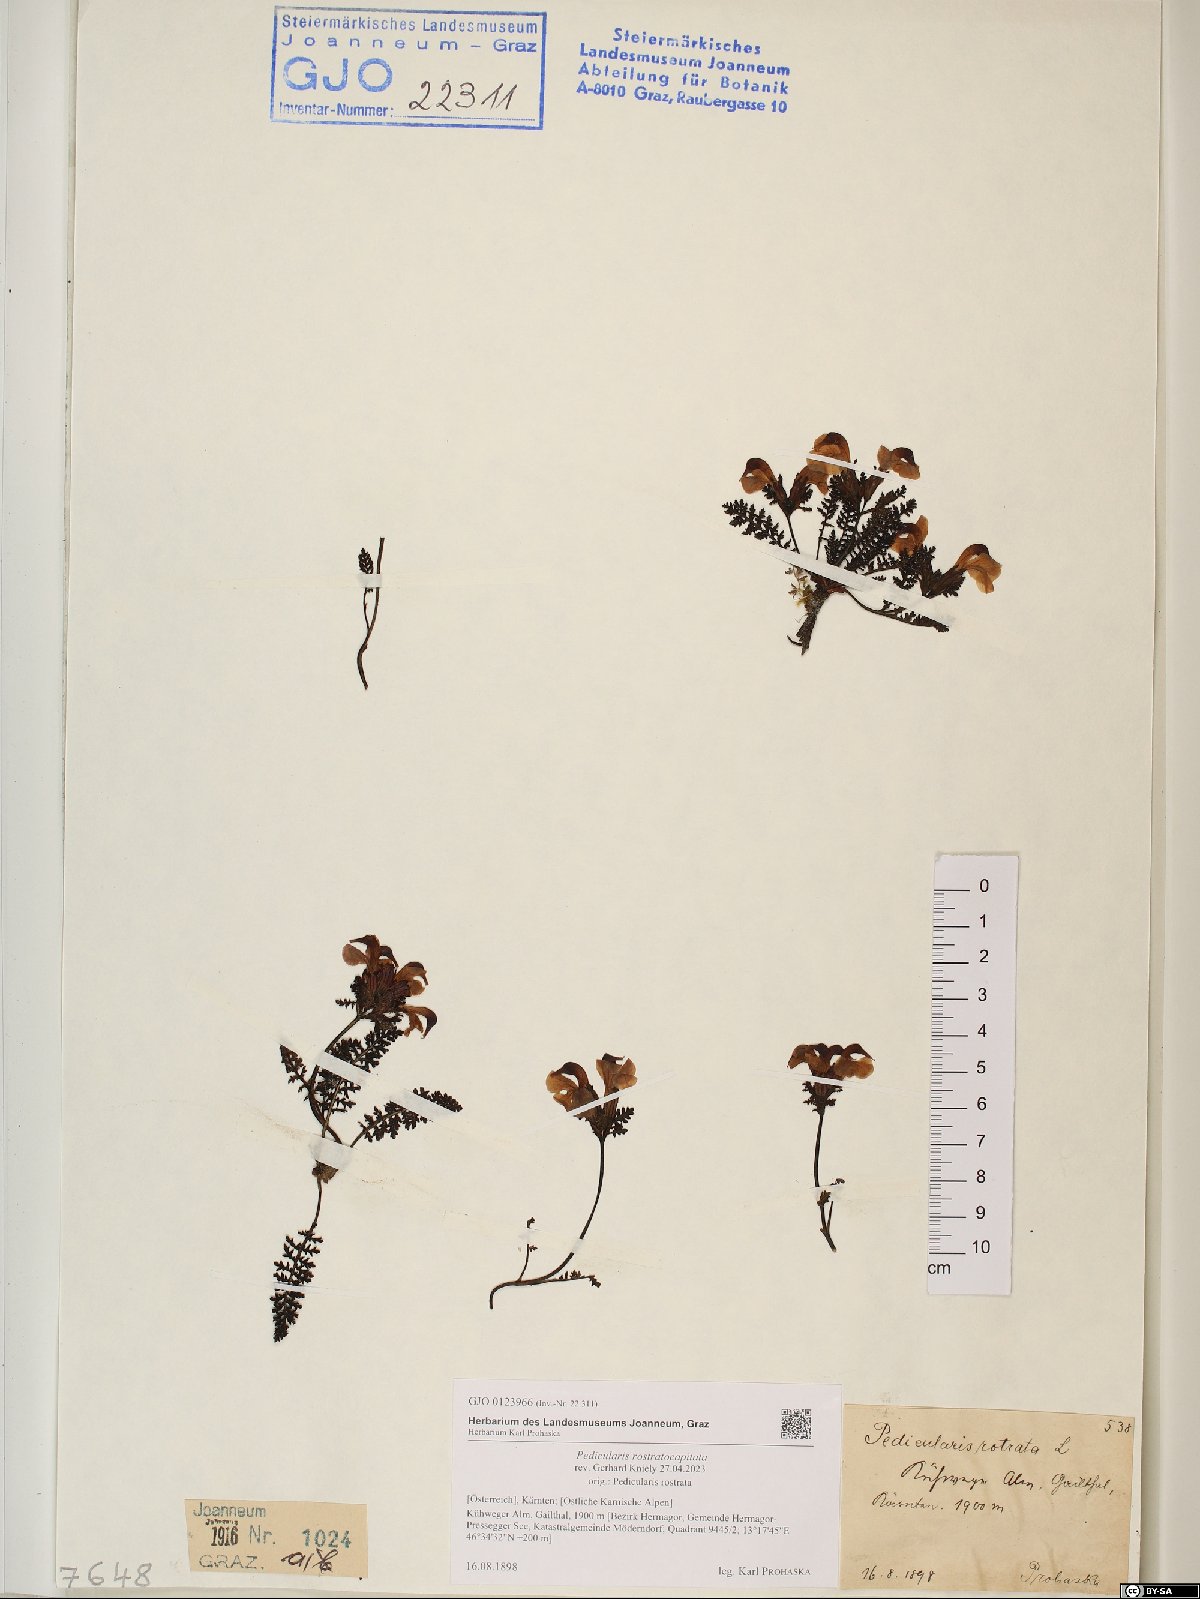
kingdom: Plantae
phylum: Tracheophyta
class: Magnoliopsida
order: Lamiales
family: Orobanchaceae
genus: Pedicularis
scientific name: Pedicularis rostratocapitata
